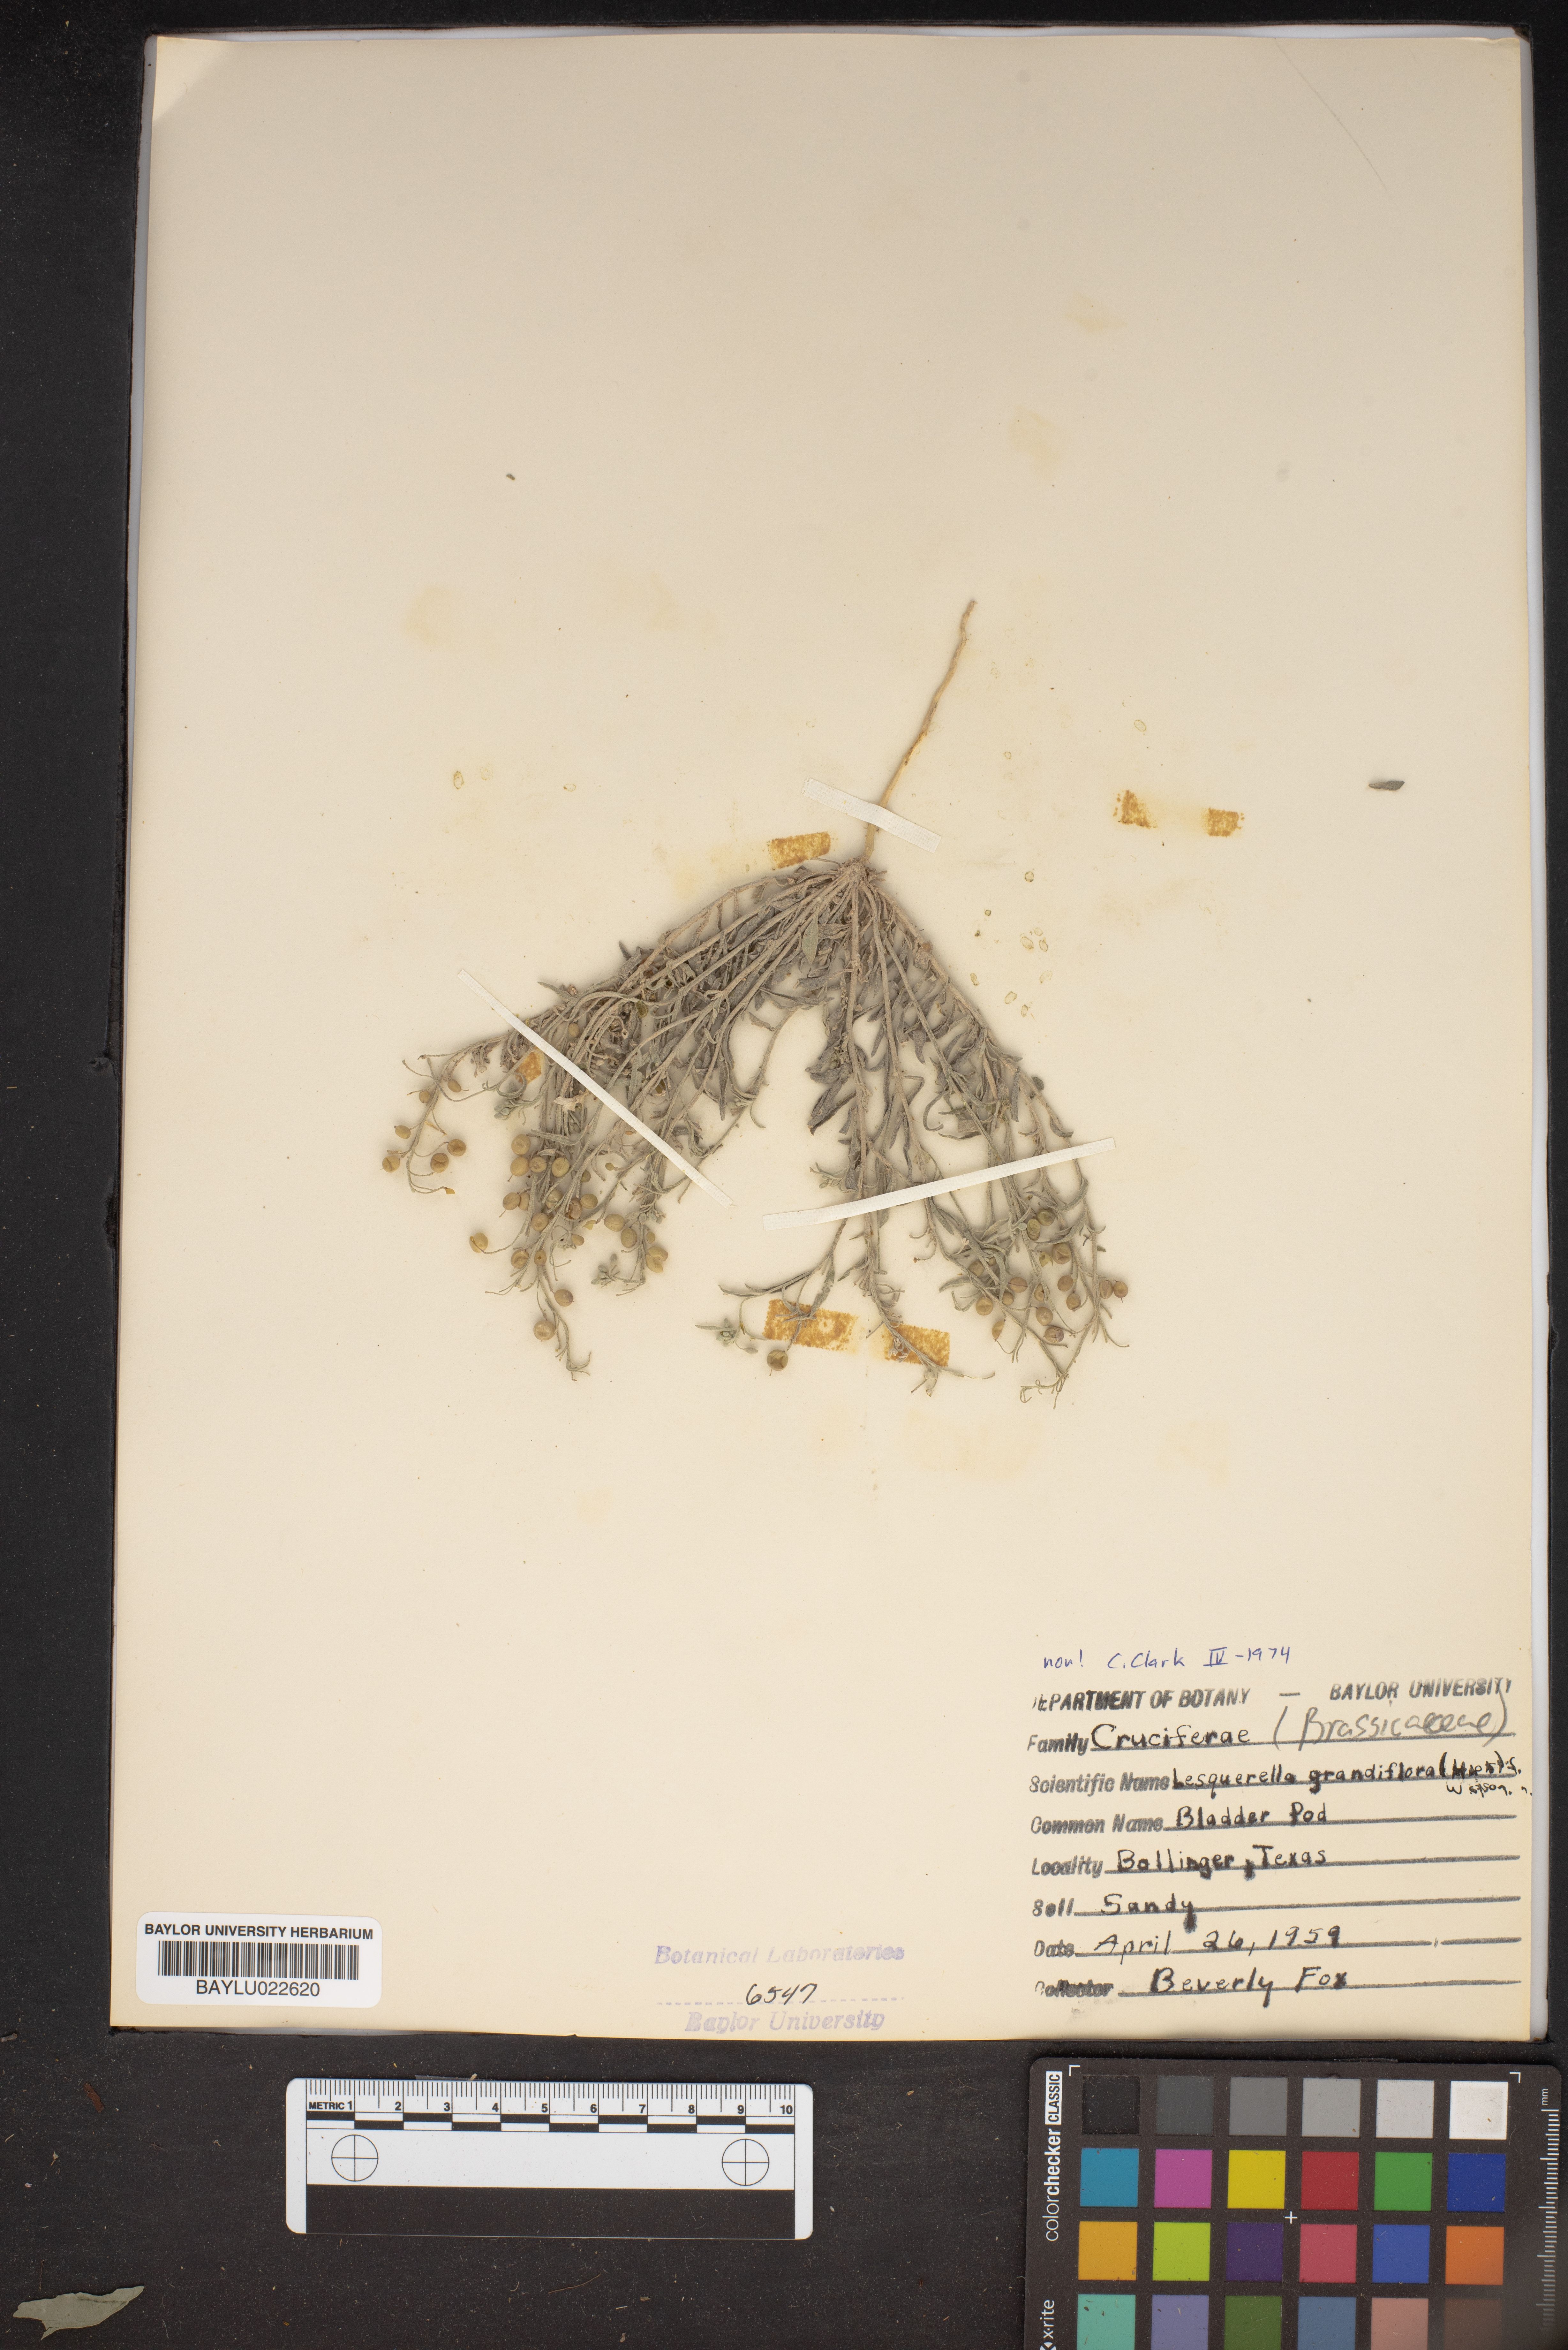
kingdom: Plantae
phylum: Tracheophyta
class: Magnoliopsida
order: Brassicales
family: Brassicaceae
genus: Paysonia
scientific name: Paysonia grandiflora
